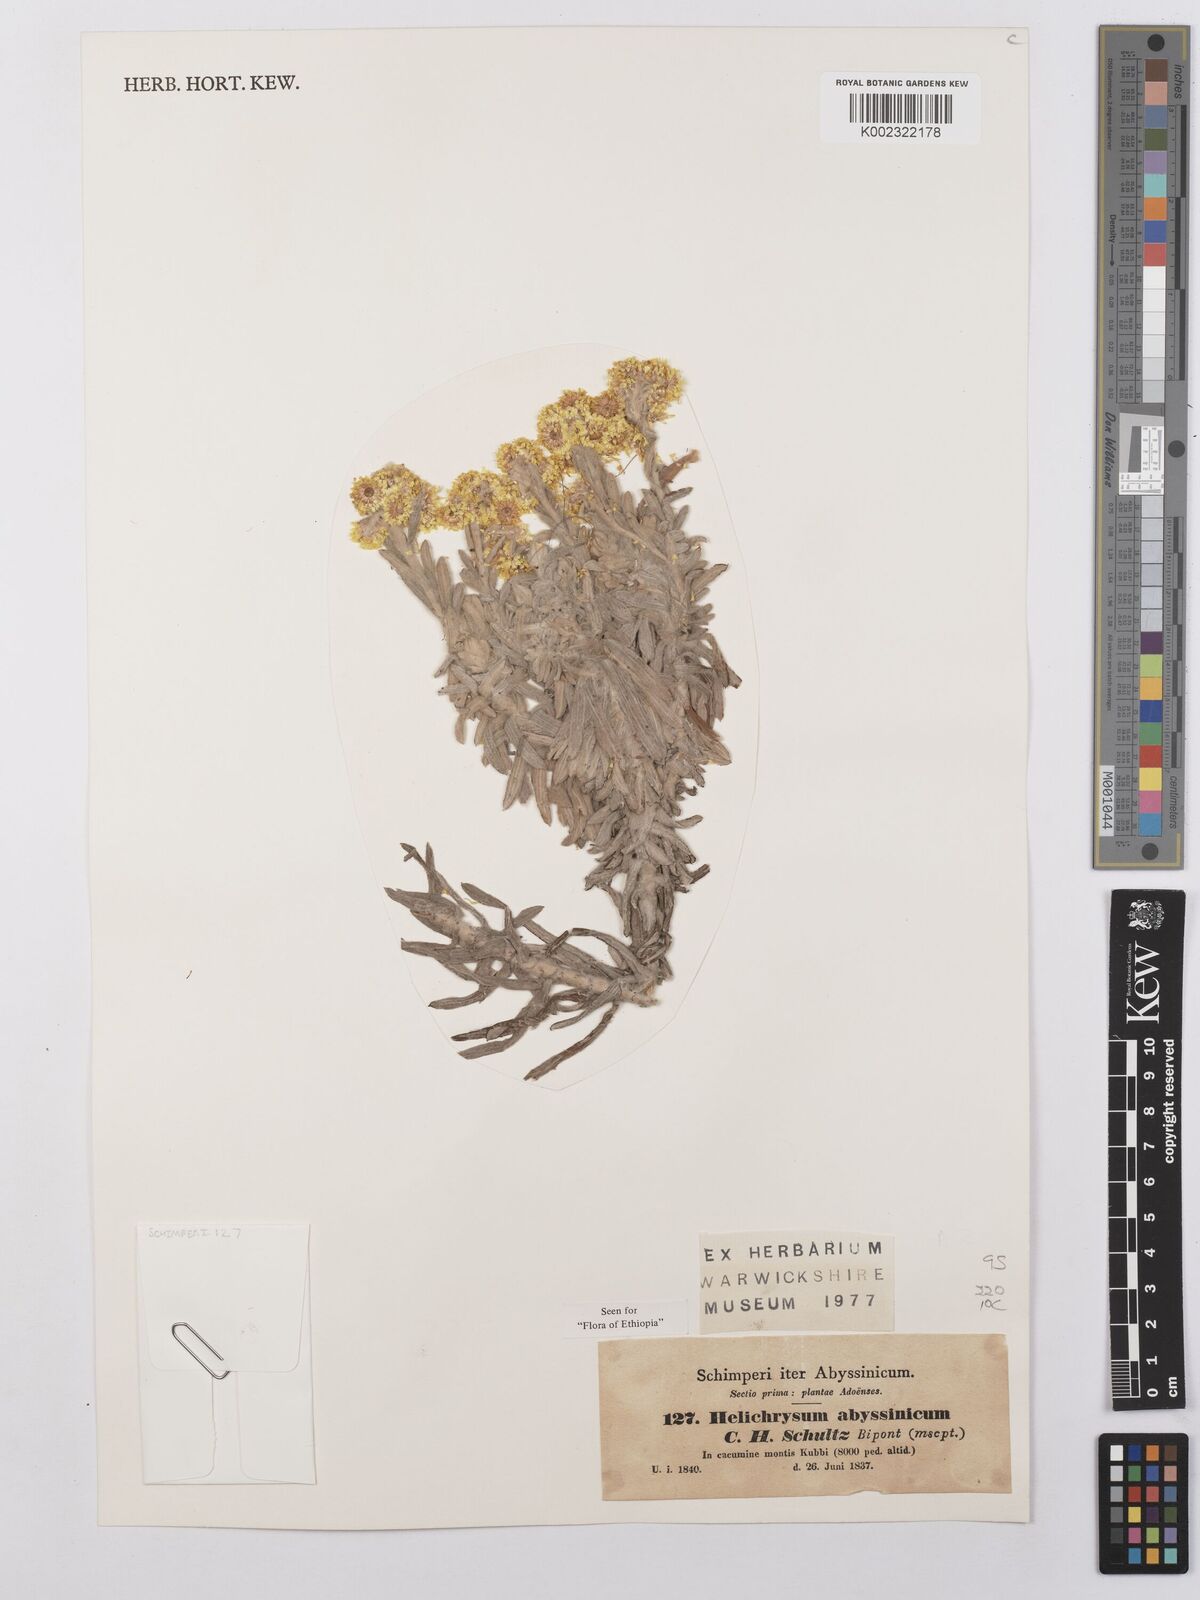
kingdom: Plantae
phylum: Tracheophyta
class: Magnoliopsida
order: Asterales
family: Asteraceae
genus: Helichrysum
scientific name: Helichrysum splendidum
